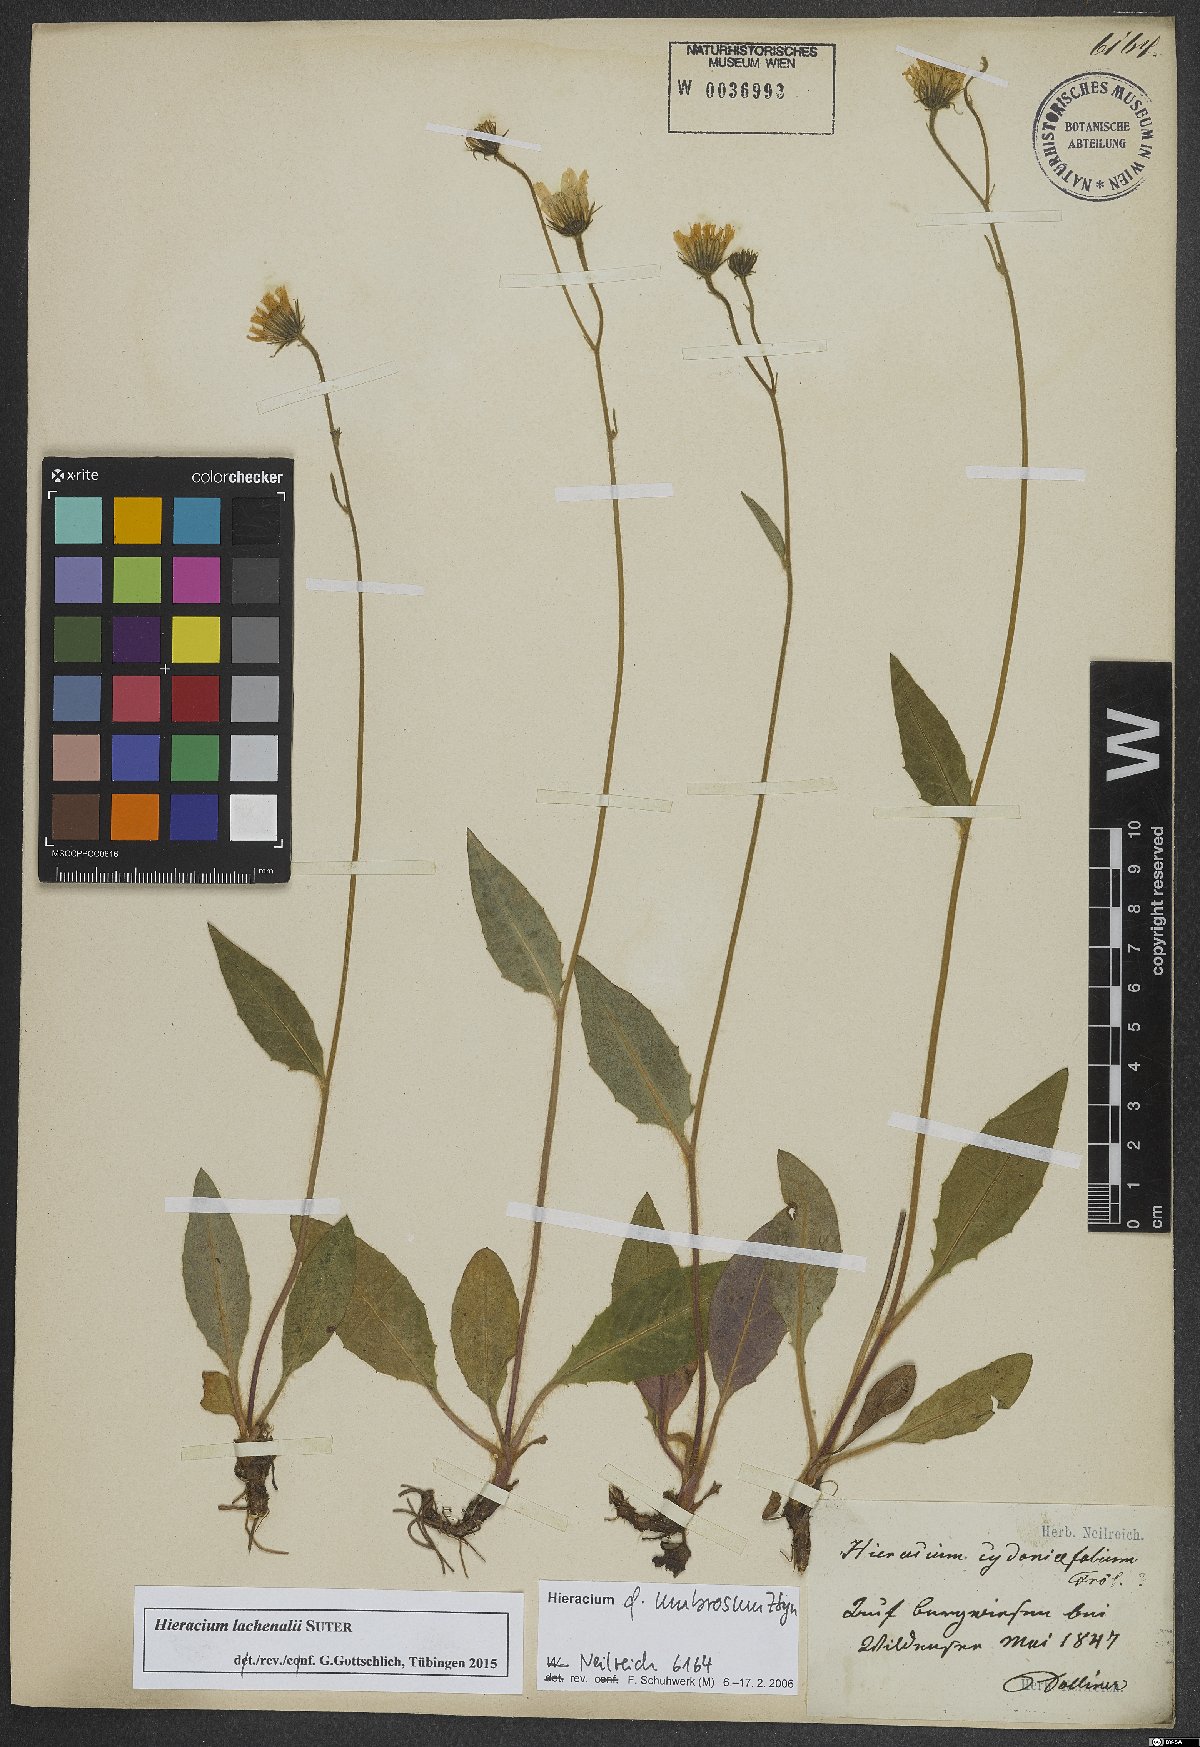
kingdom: Plantae
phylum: Tracheophyta
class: Magnoliopsida
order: Asterales
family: Asteraceae
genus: Hieracium
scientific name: Hieracium lachenalii
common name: Common hawkweed
